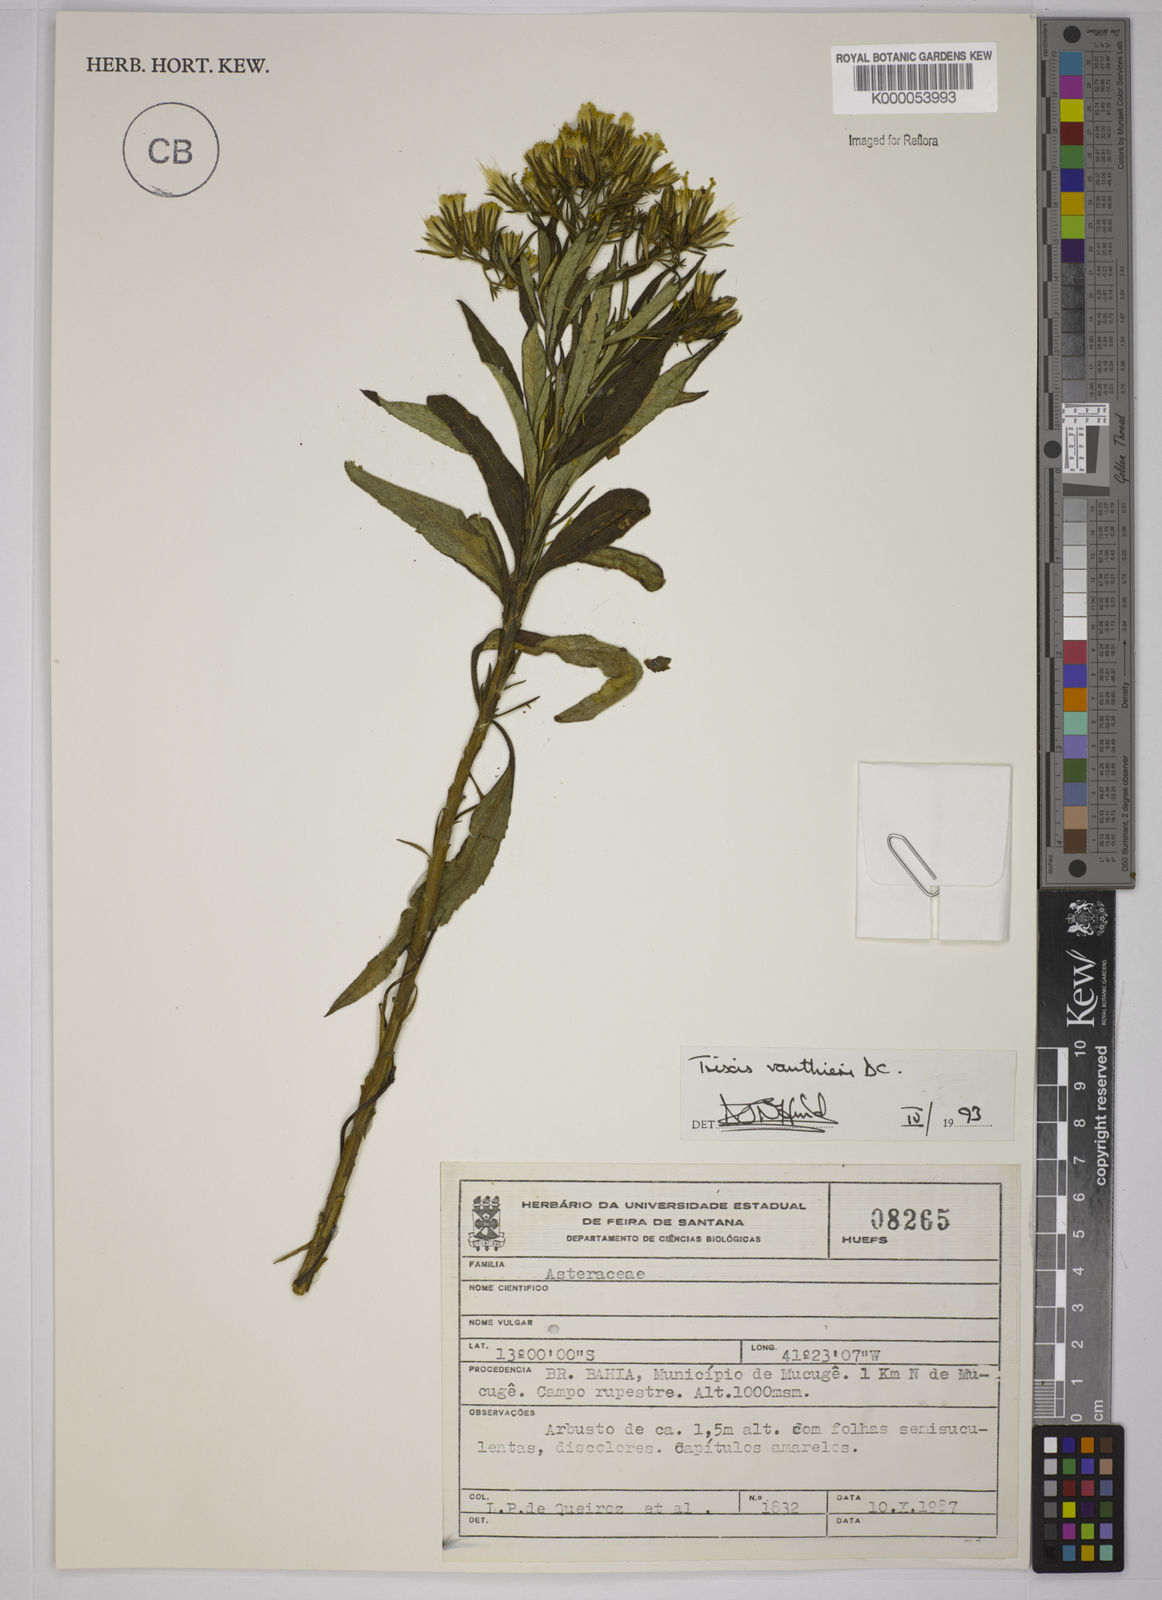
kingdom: Plantae
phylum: Tracheophyta
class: Magnoliopsida
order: Asterales
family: Asteraceae
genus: Trixis
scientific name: Trixis vauthieri
